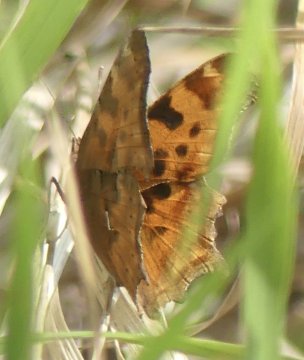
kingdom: Animalia
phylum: Arthropoda
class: Insecta
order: Lepidoptera
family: Nymphalidae
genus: Polygonia
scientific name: Polygonia satyrus
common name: Satyr Comma
